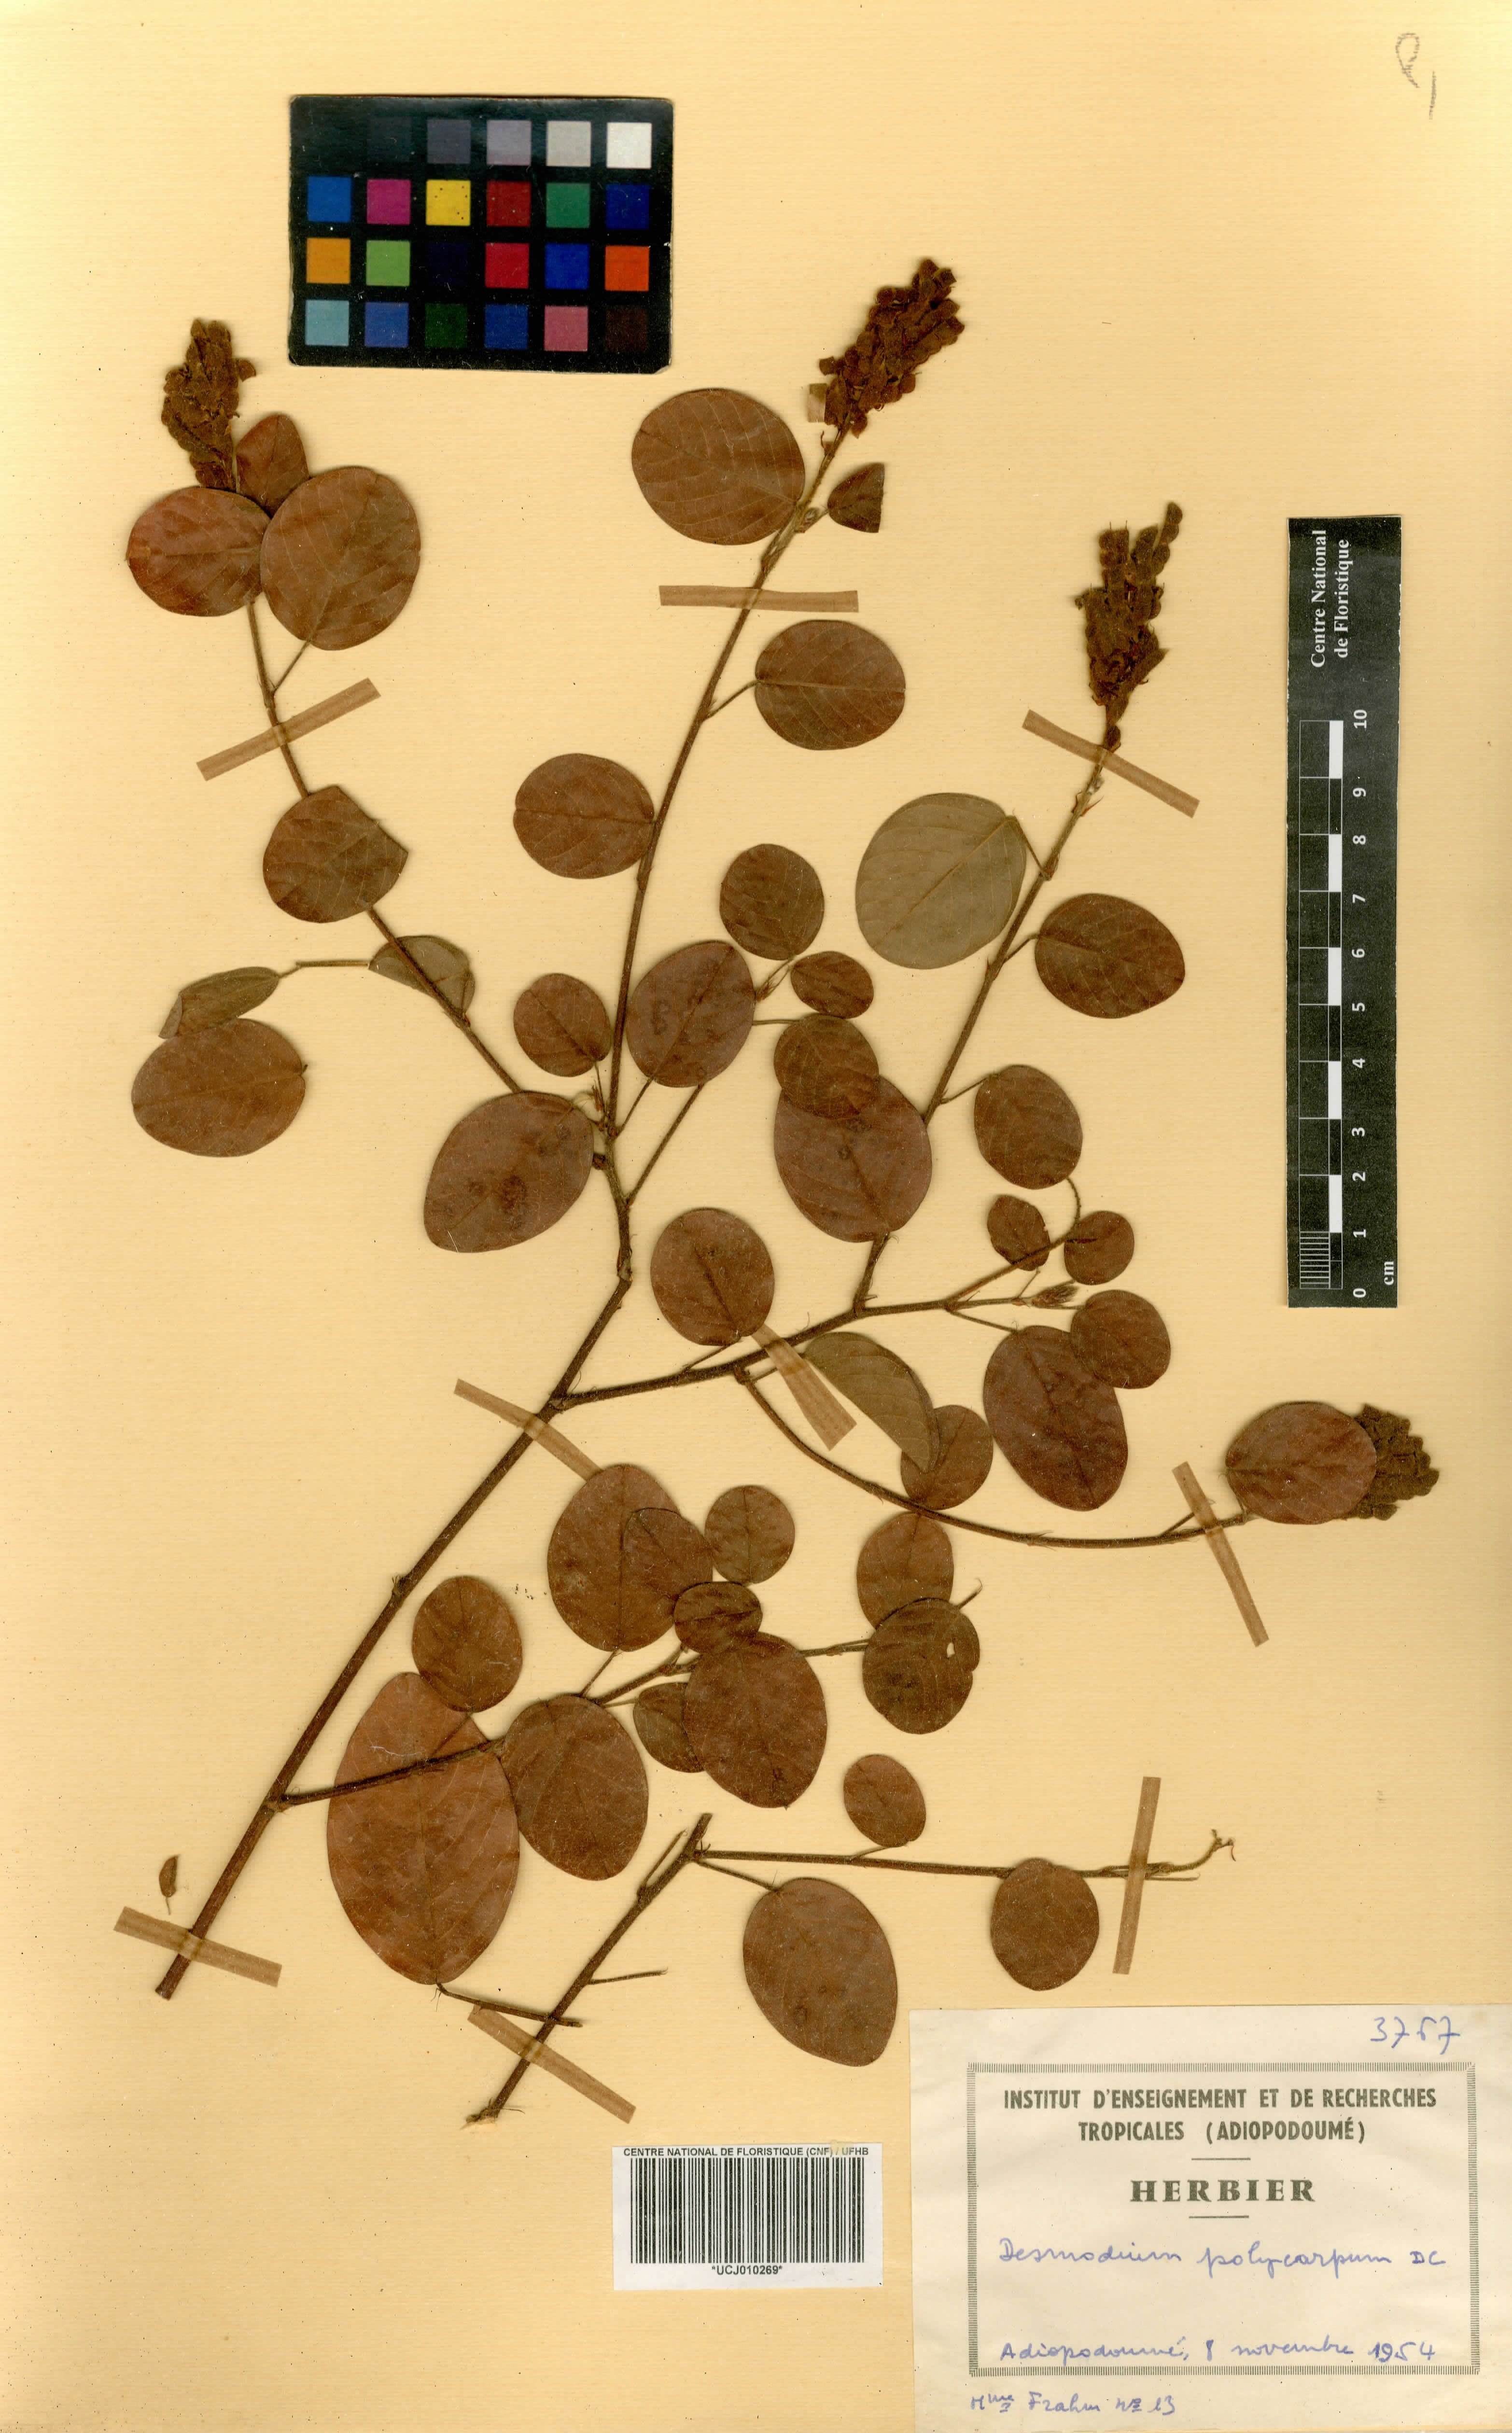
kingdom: Plantae
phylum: Tracheophyta
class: Magnoliopsida
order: Fabales
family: Fabaceae
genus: Grona
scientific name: Grona heterocarpos
